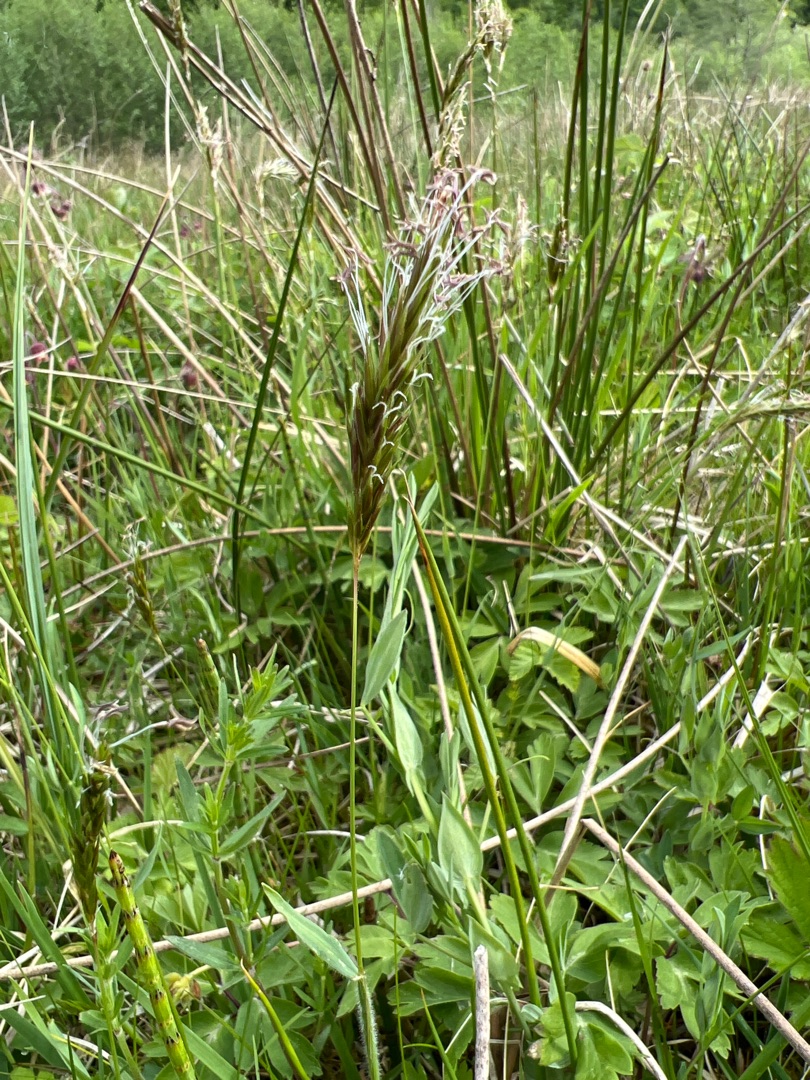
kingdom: Plantae
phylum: Tracheophyta
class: Liliopsida
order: Poales
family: Poaceae
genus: Anthoxanthum
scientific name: Anthoxanthum odoratum
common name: Vellugtende gulaks
